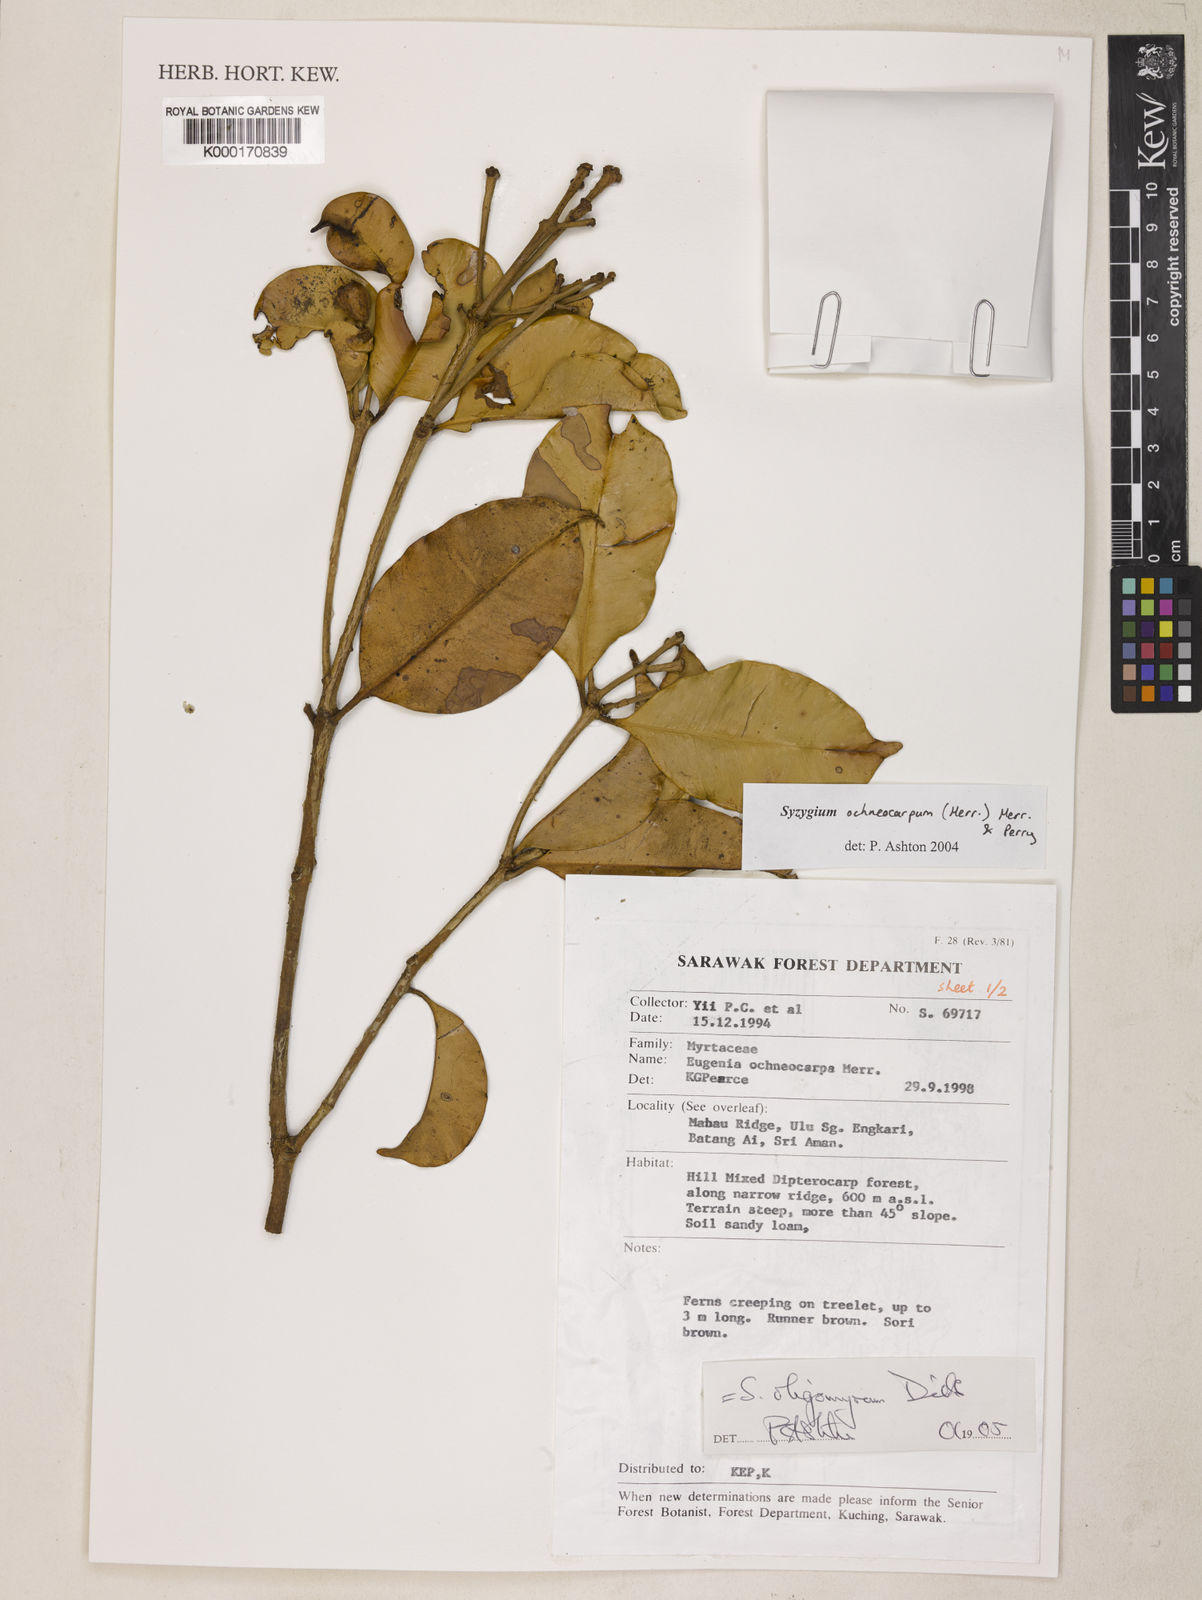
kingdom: Plantae
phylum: Tracheophyta
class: Magnoliopsida
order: Myrtales
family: Myrtaceae
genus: Syzygium
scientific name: Syzygium oligomyrum
